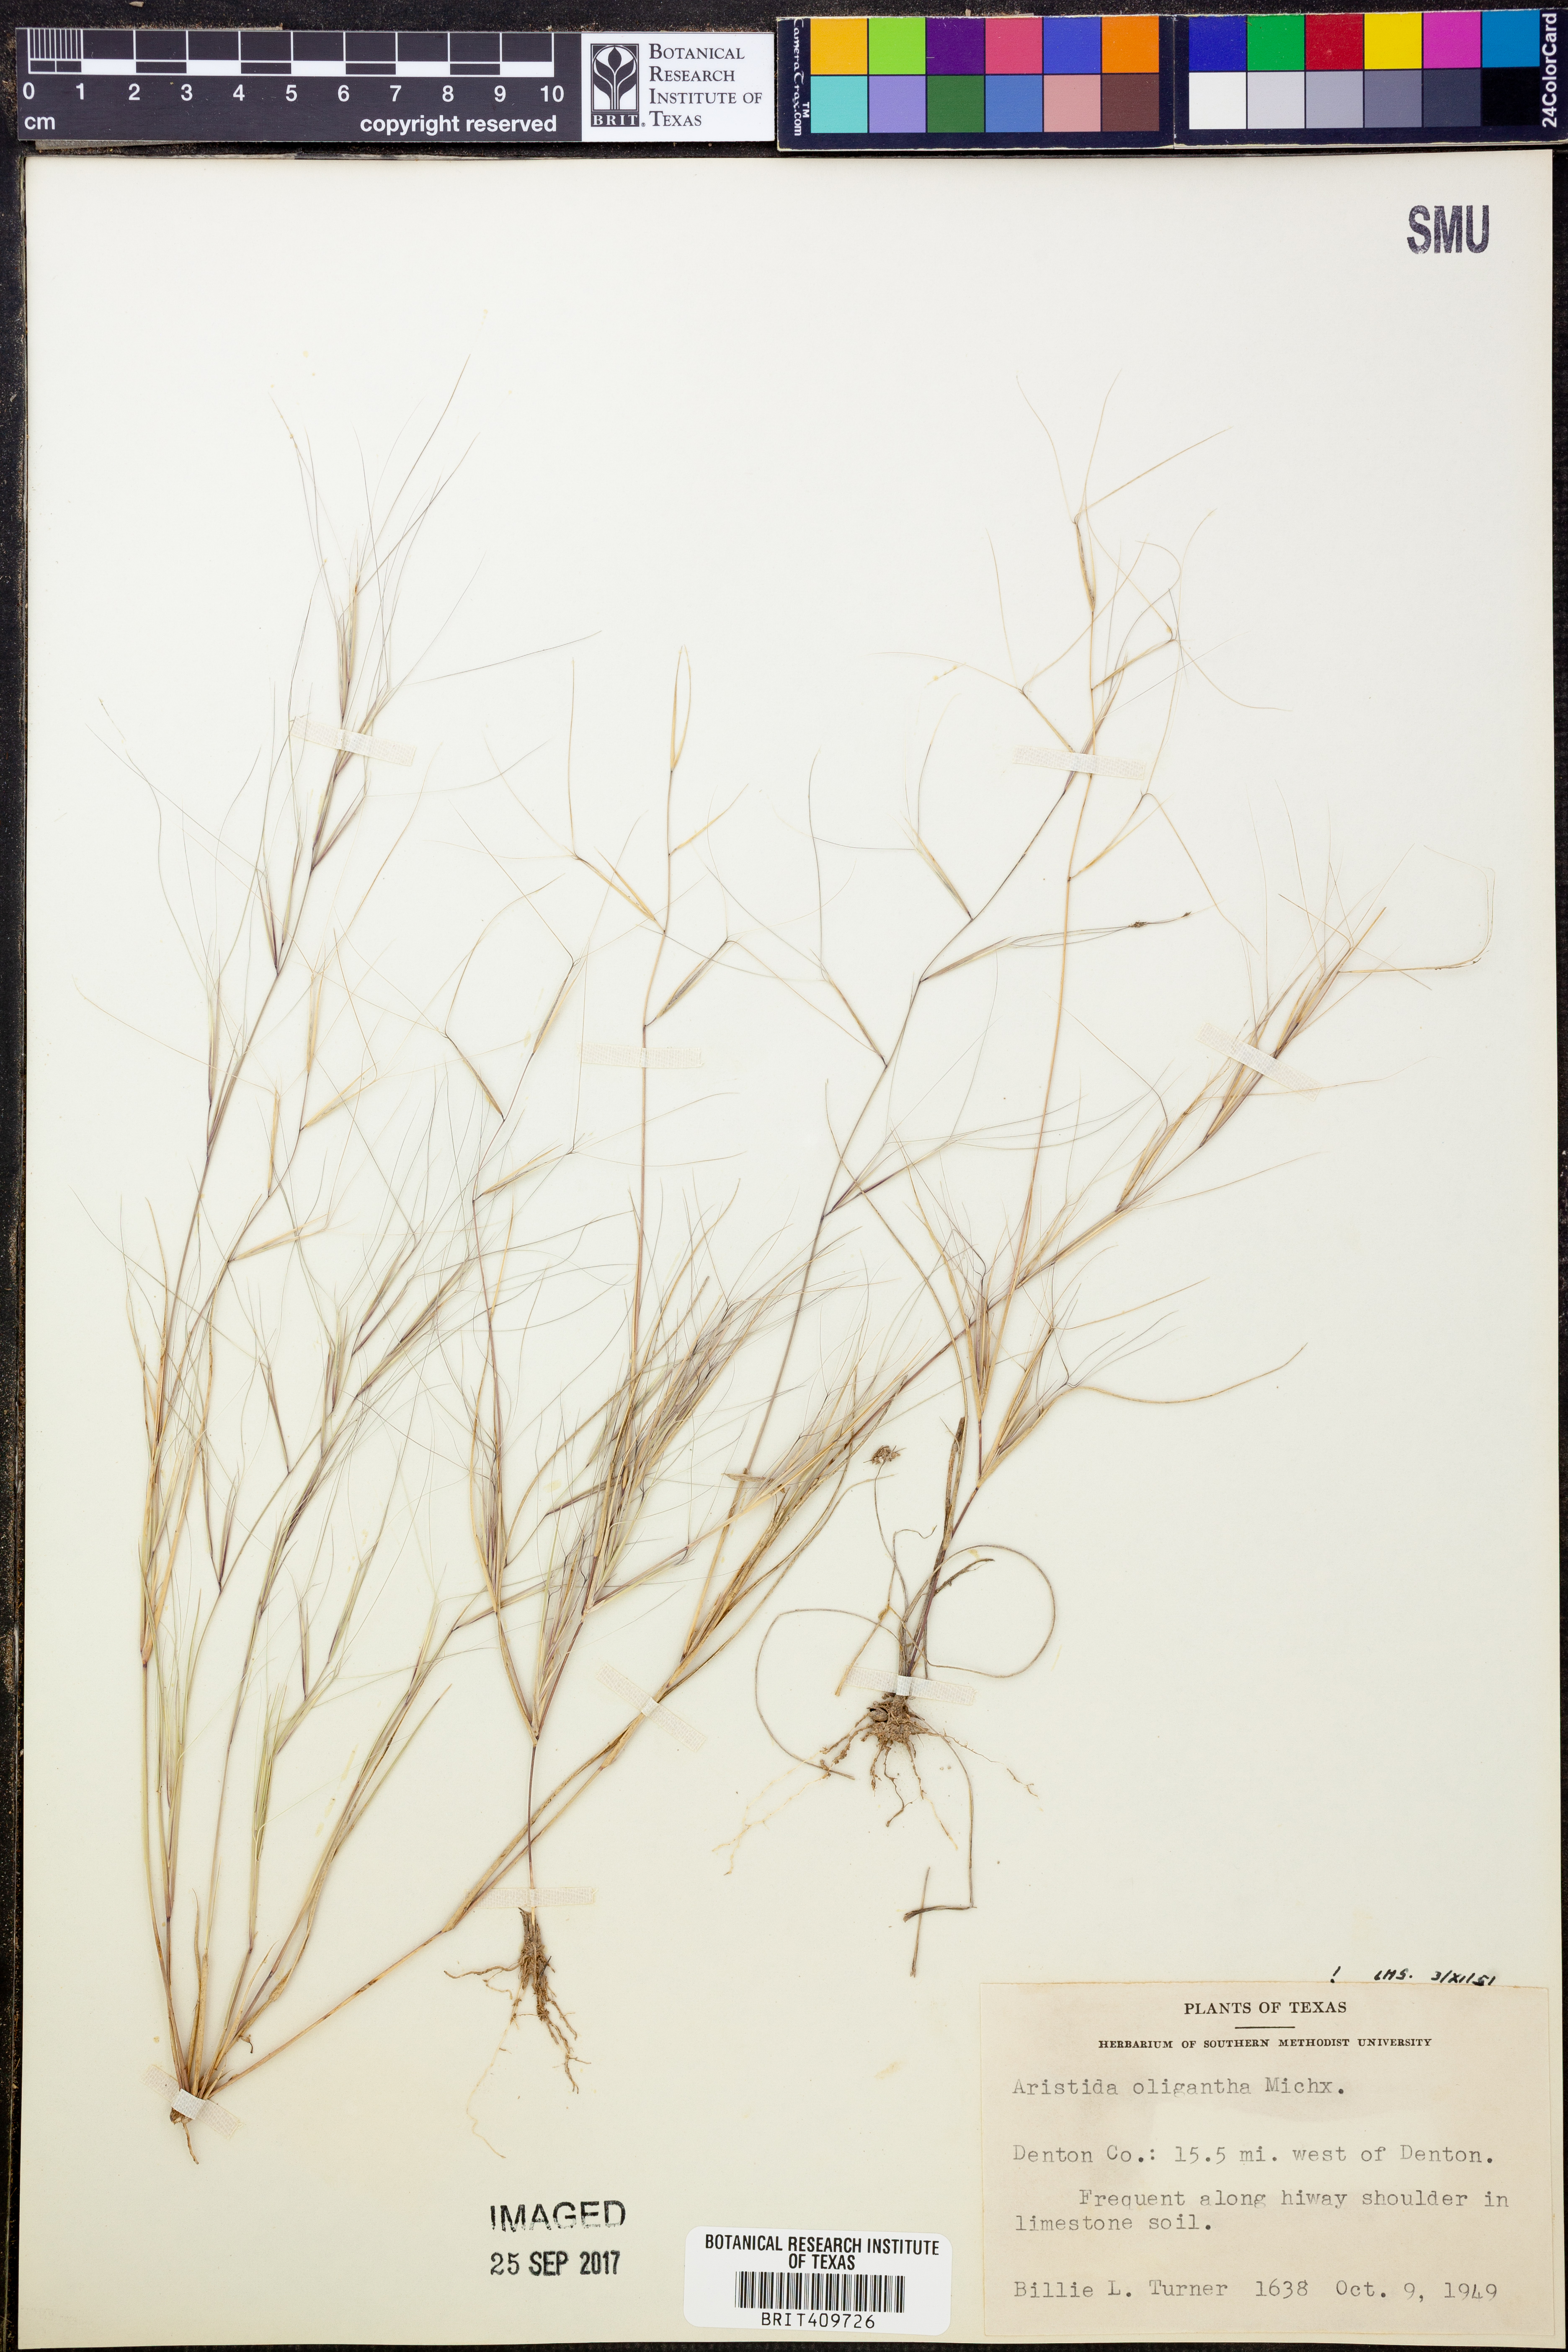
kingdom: Plantae
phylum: Tracheophyta
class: Liliopsida
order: Poales
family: Poaceae
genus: Aristida
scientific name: Aristida oligantha
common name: Few-flowered aristida
